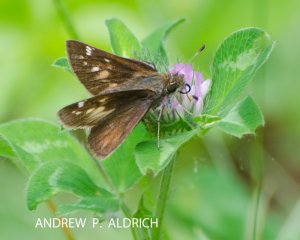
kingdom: Animalia
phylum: Arthropoda
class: Insecta
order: Lepidoptera
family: Hesperiidae
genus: Lon
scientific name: Lon hobomok
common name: Hobomok Skipper
